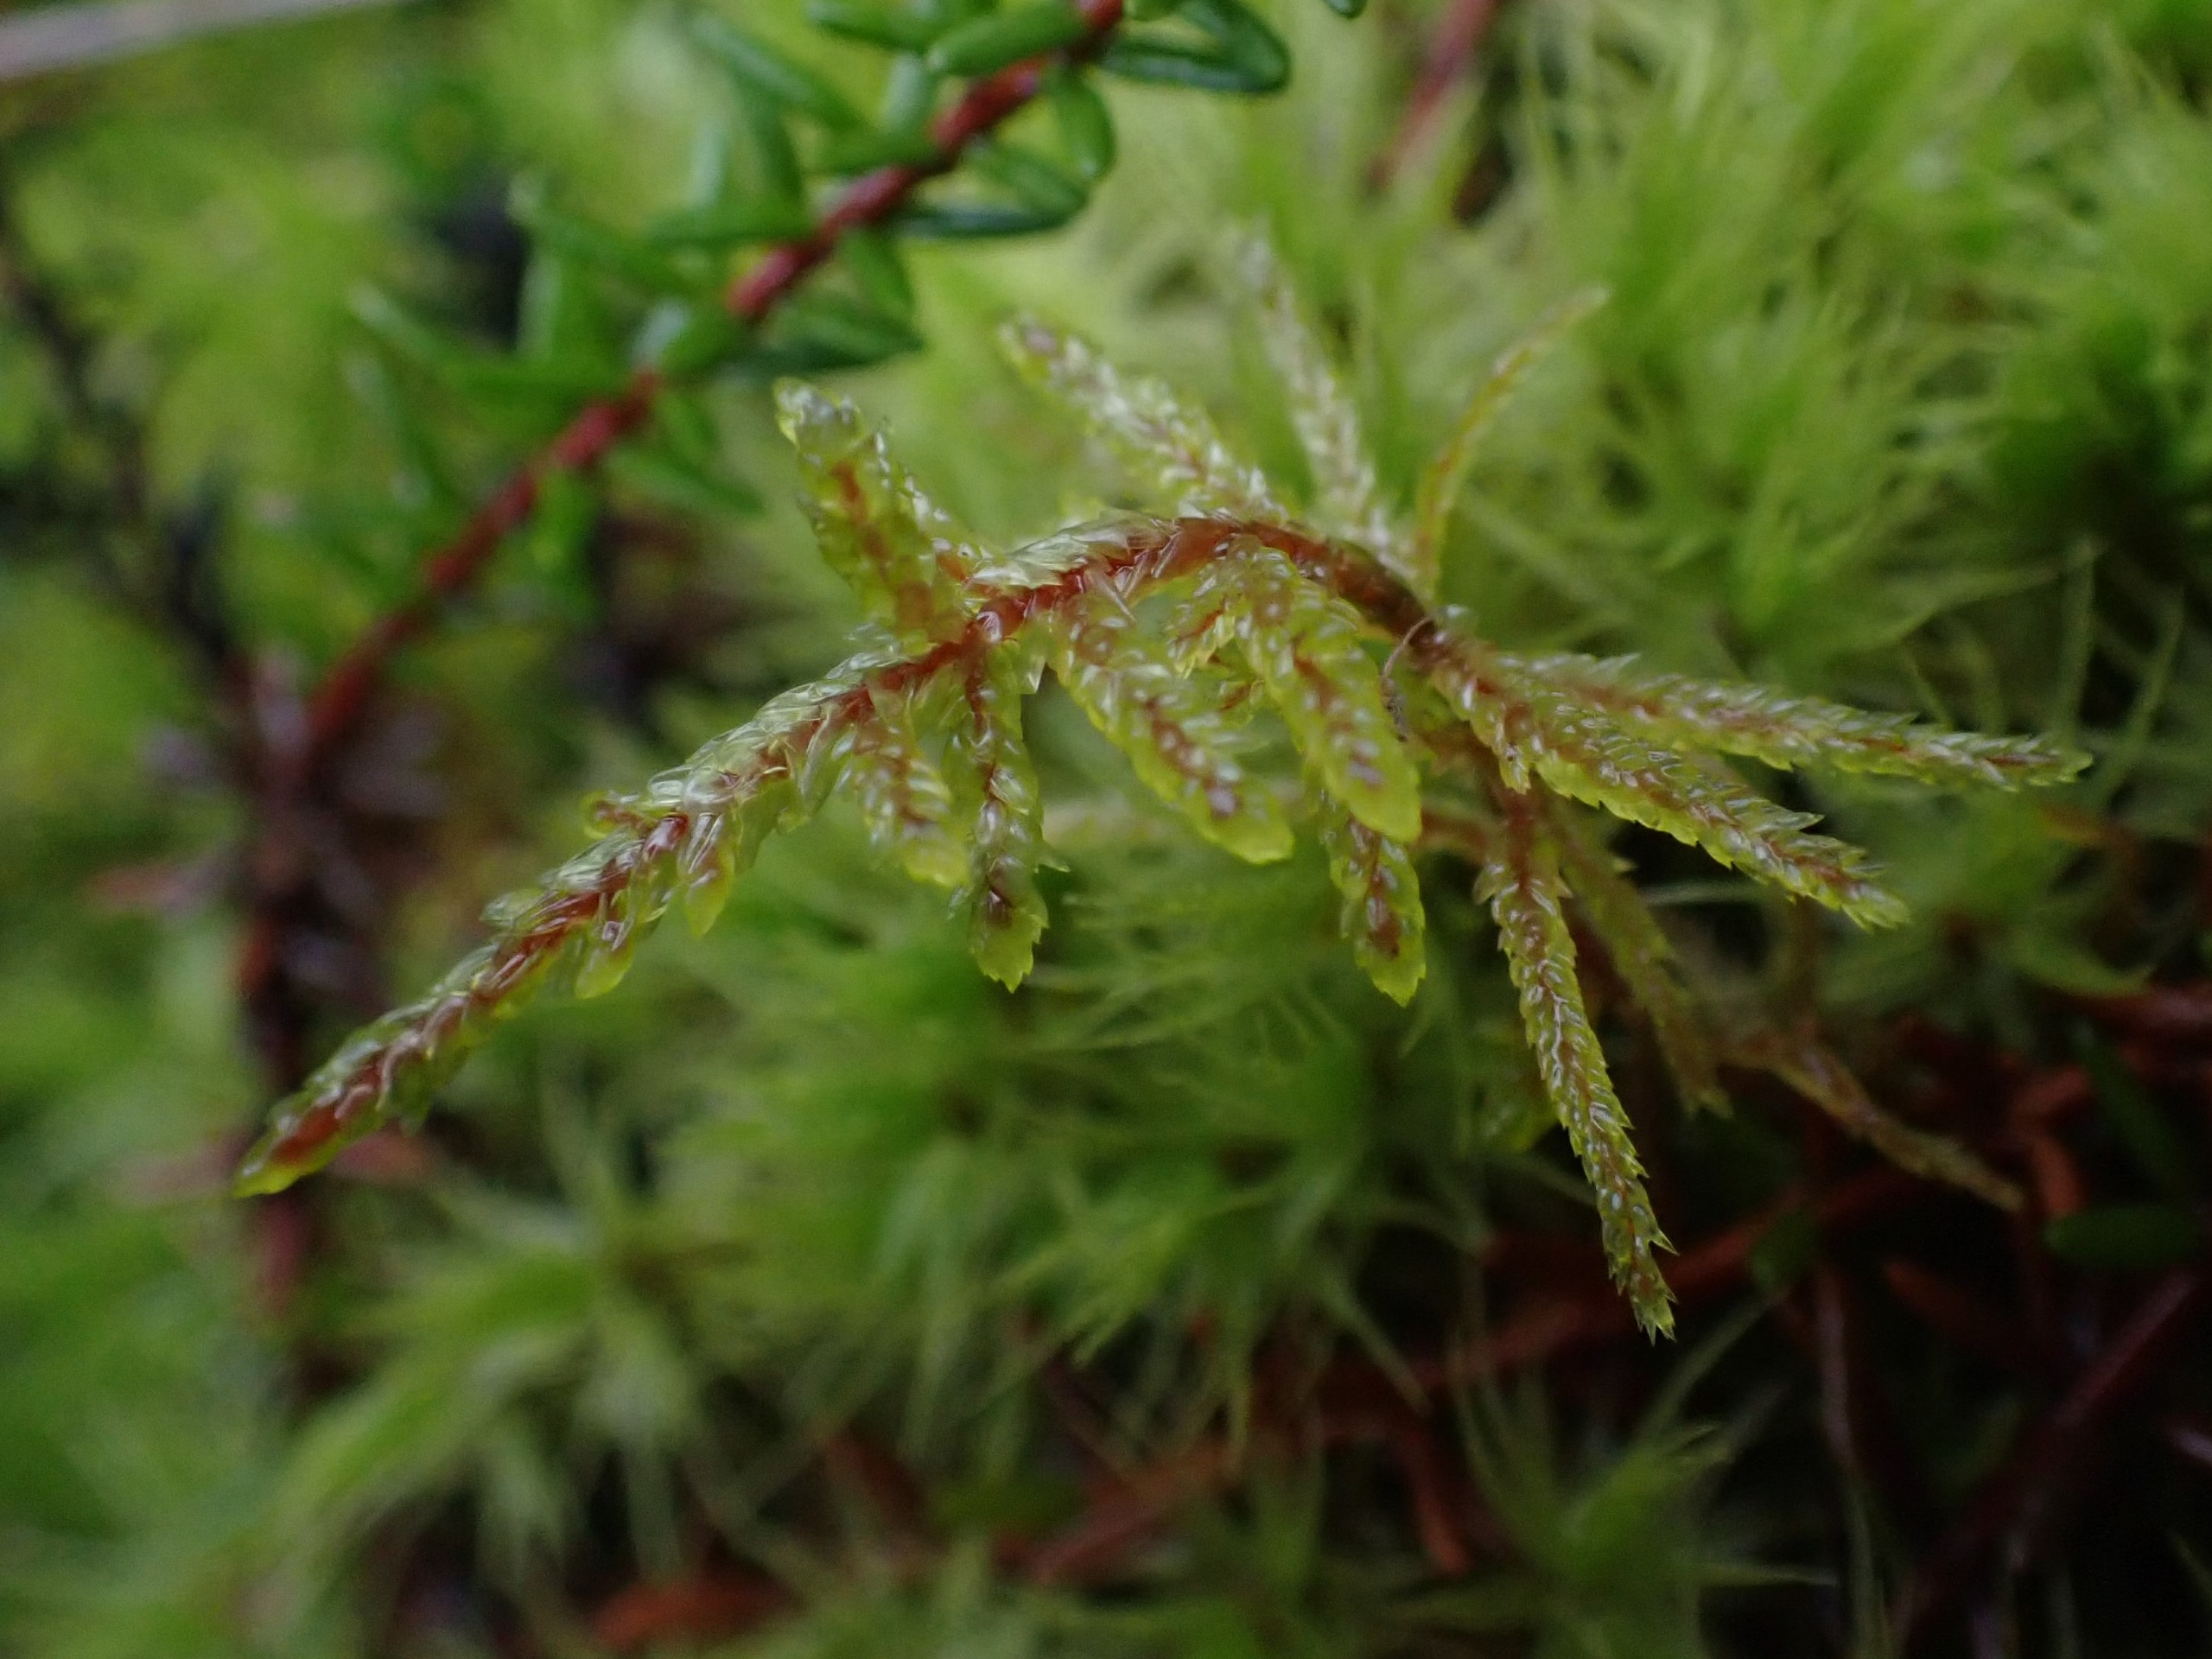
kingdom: Plantae
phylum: Bryophyta
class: Bryopsida
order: Hypnales
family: Hylocomiaceae
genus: Pleurozium
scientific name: Pleurozium schreberi
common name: Trind fyrremos
